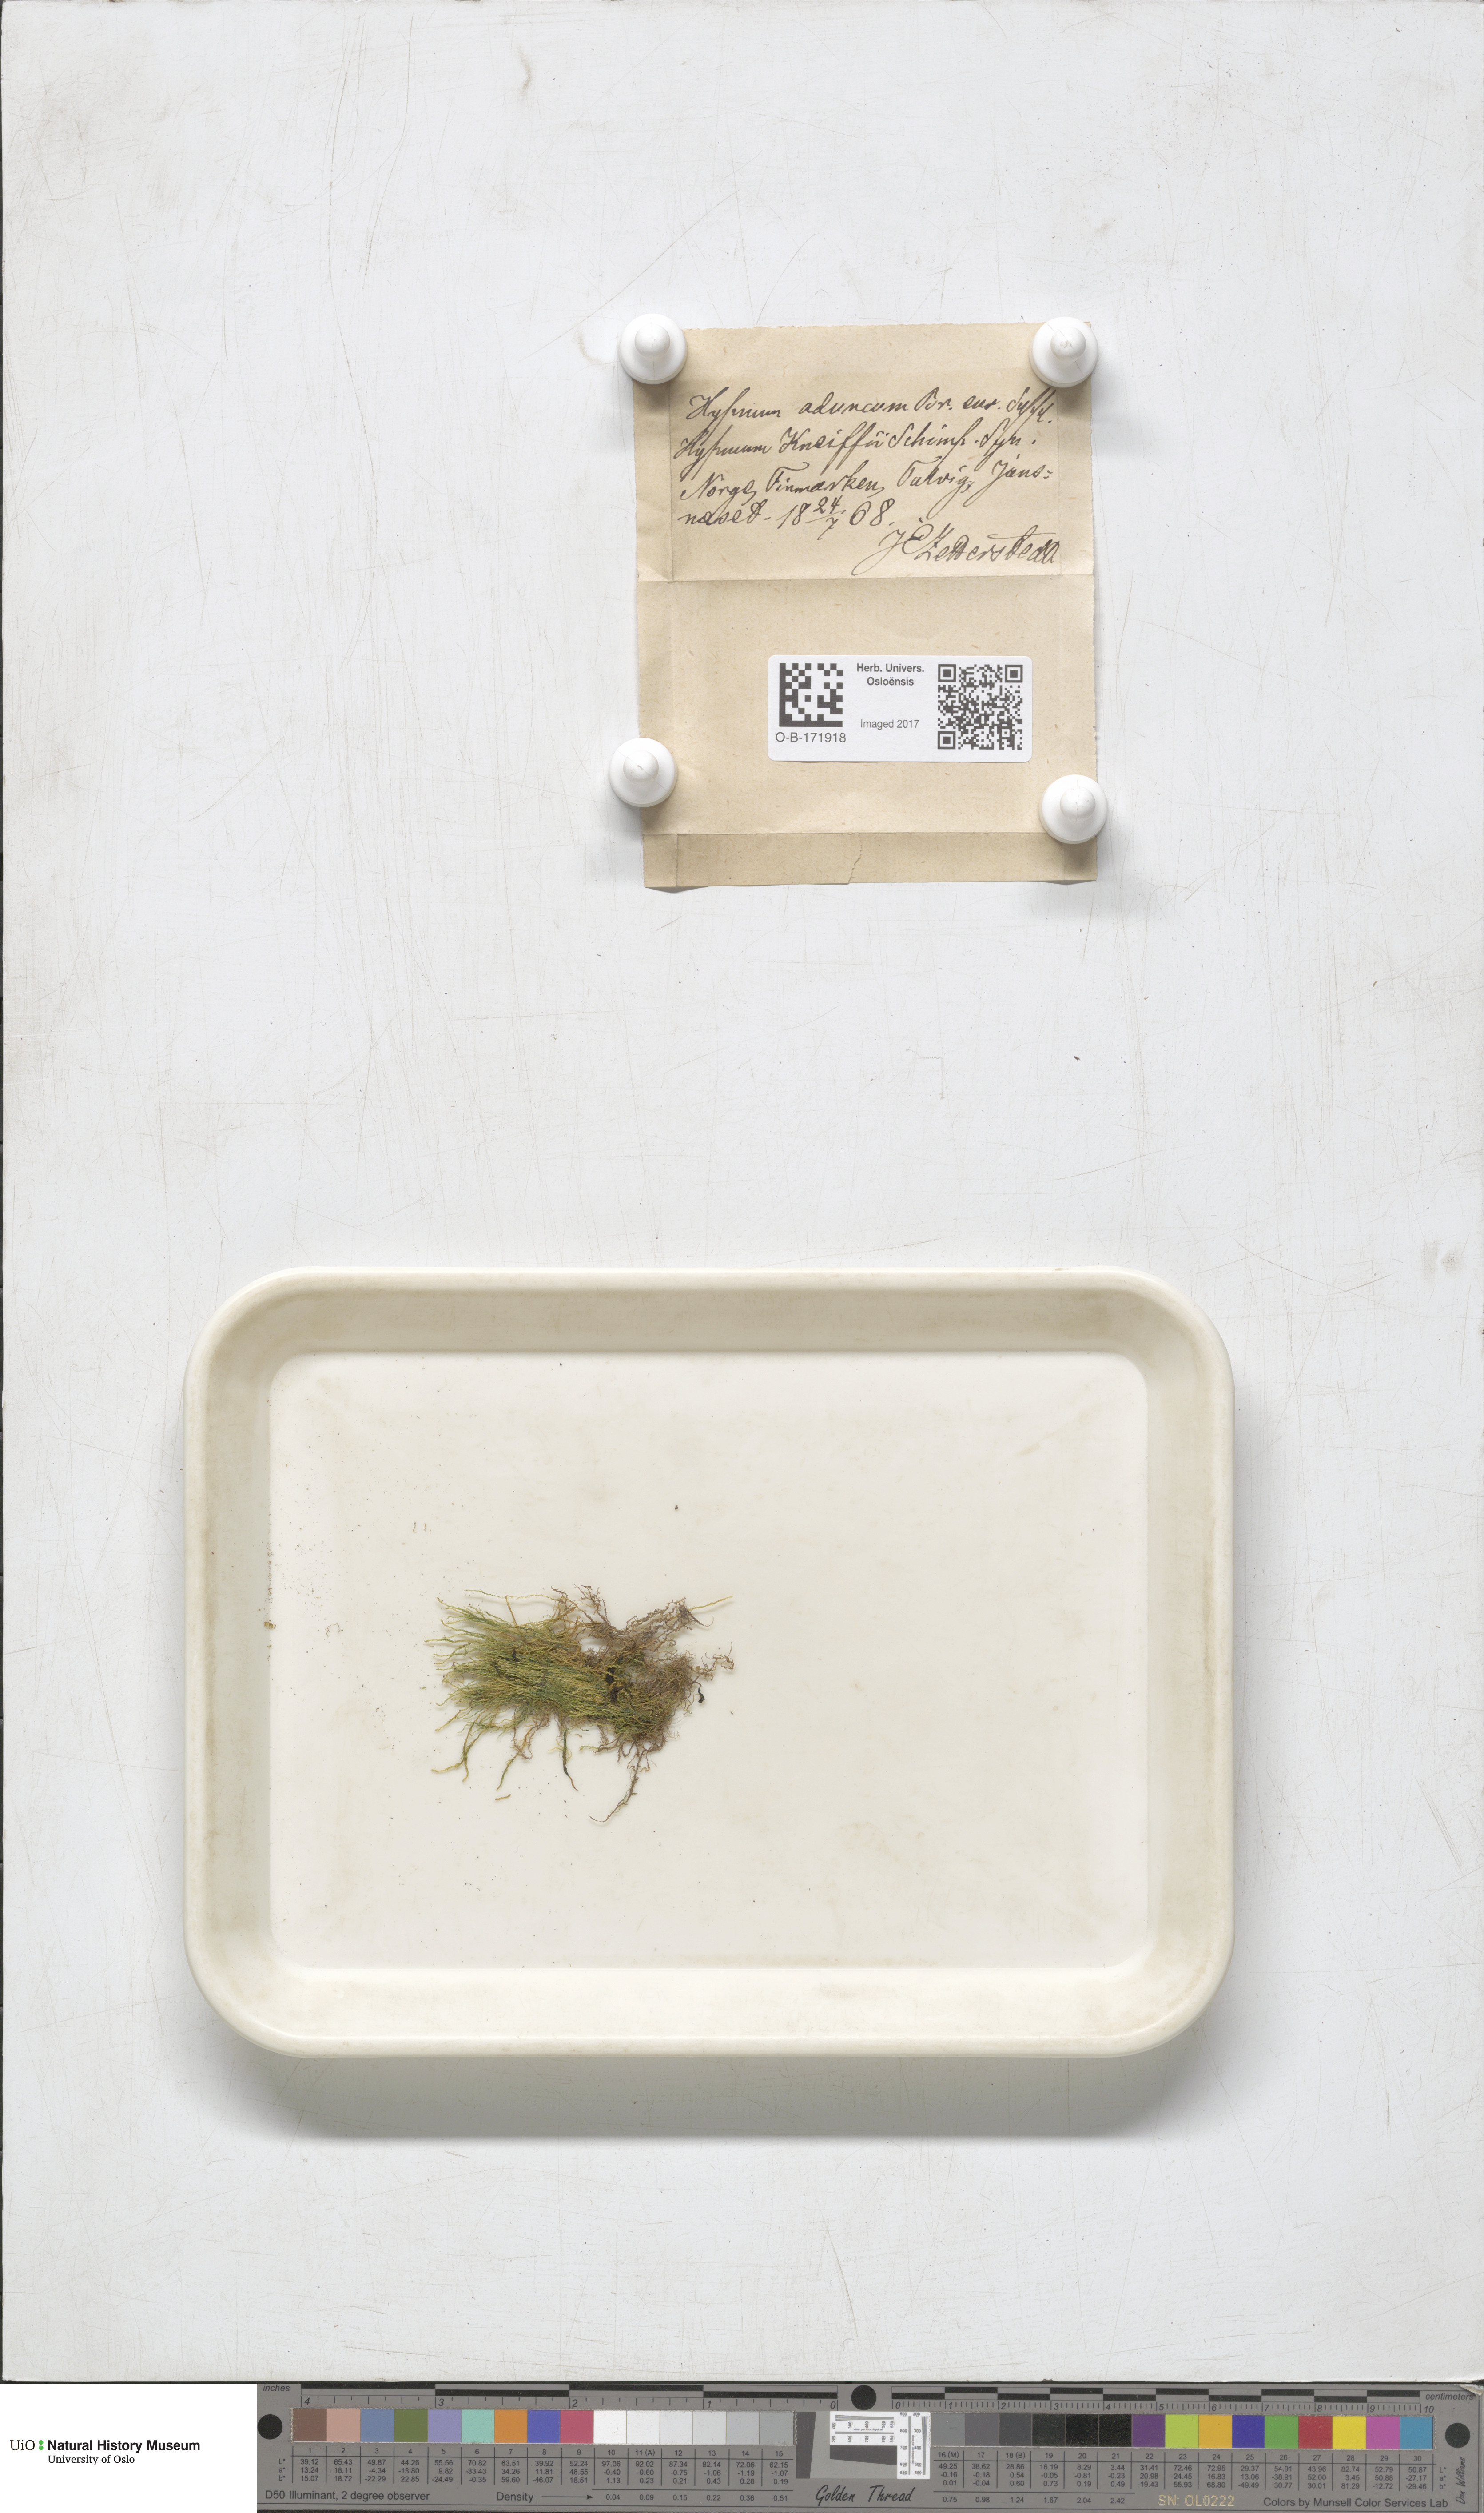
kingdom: Plantae
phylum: Bryophyta
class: Bryopsida
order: Hypnales
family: Amblystegiaceae
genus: Drepanocladus
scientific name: Drepanocladus aduncus
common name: Knieff's hook moss
